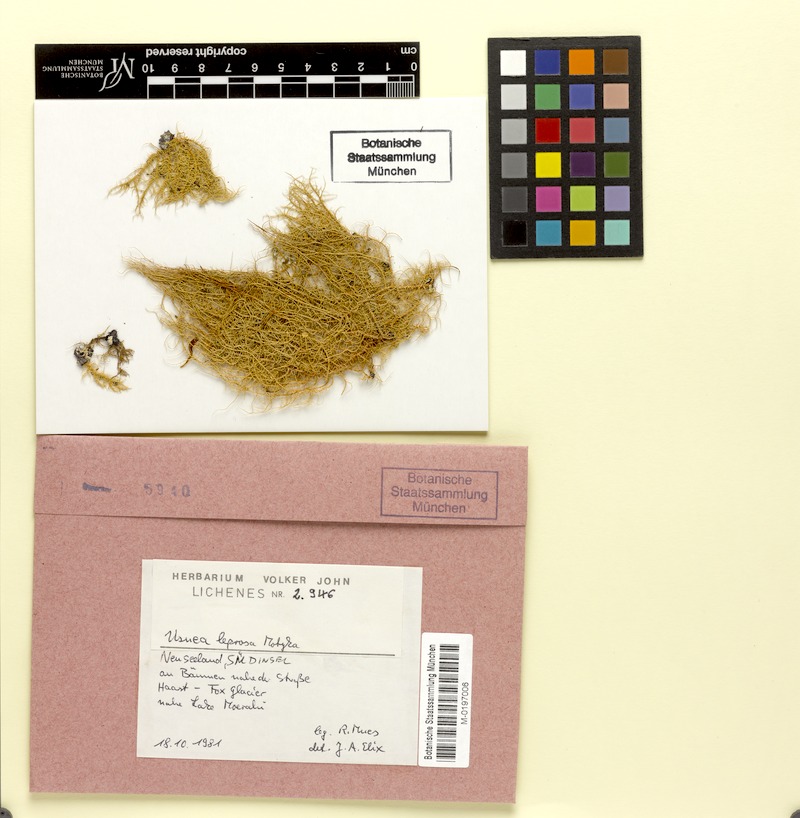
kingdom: Fungi
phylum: Ascomycota
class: Lecanoromycetes
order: Lecanorales
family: Parmeliaceae
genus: Usnea
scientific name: Usnea leprosa
